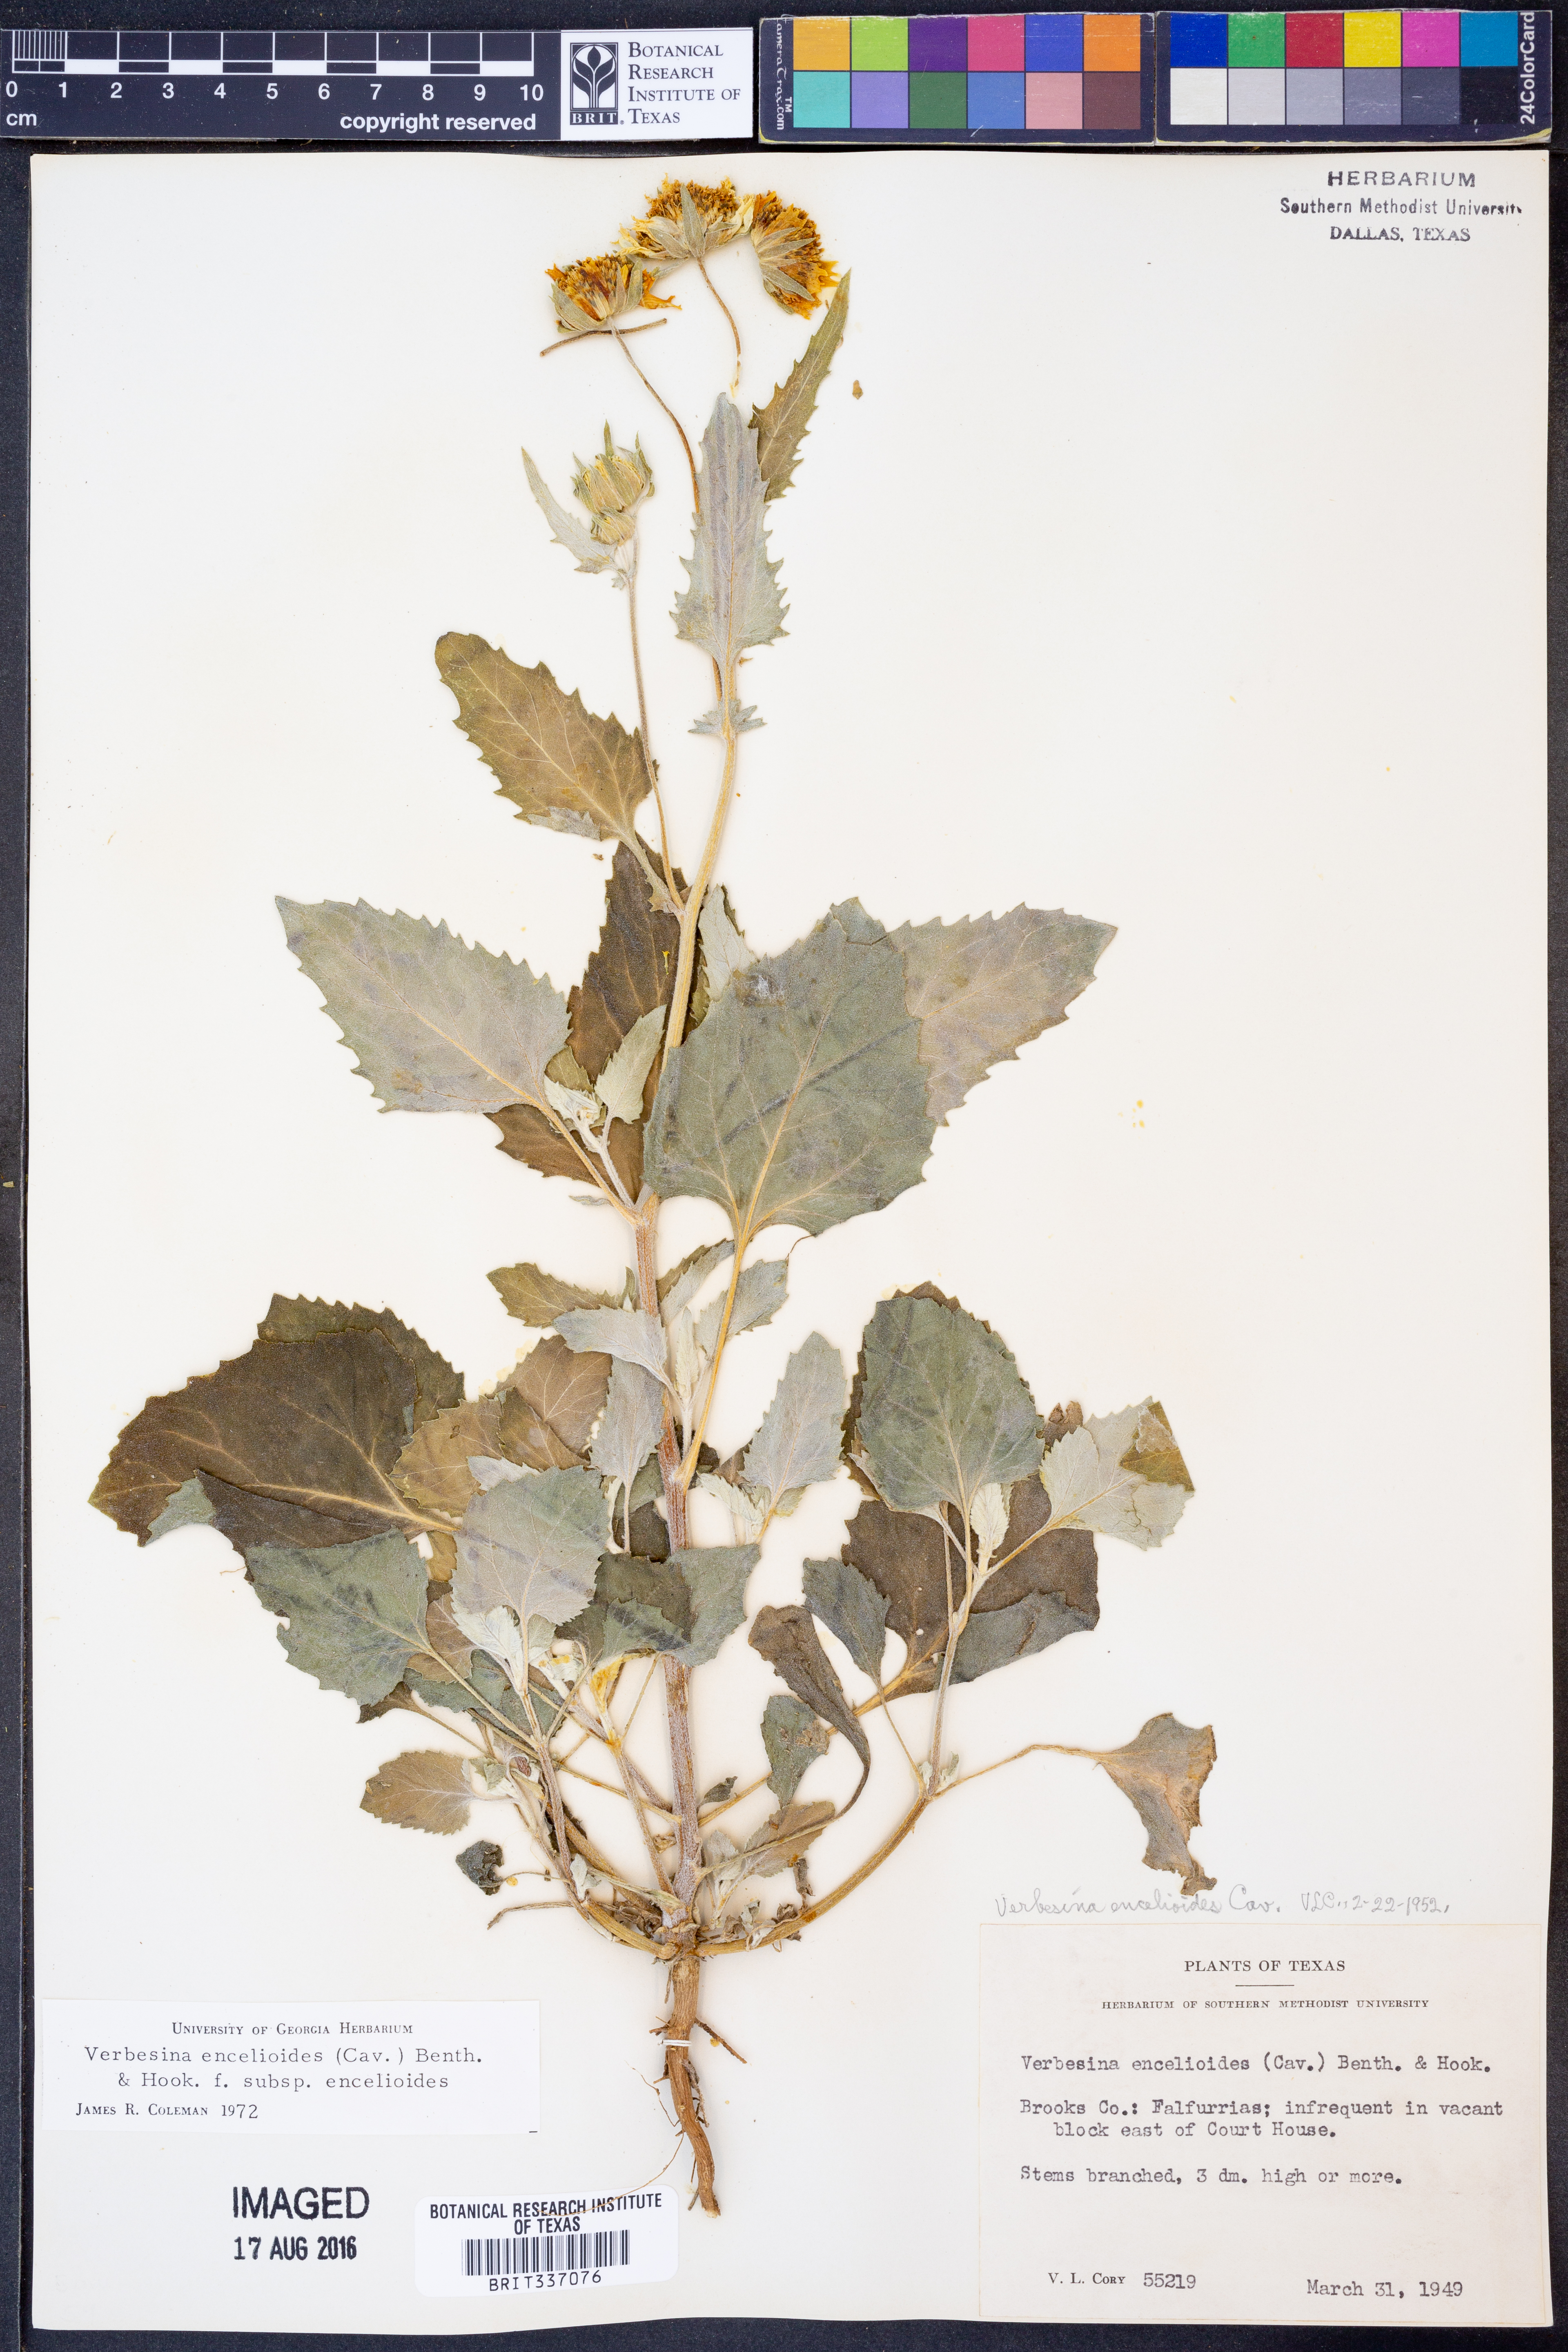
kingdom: Plantae
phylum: Tracheophyta
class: Magnoliopsida
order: Asterales
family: Asteraceae
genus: Verbesina
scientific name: Verbesina encelioides
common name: Golden crownbeard
